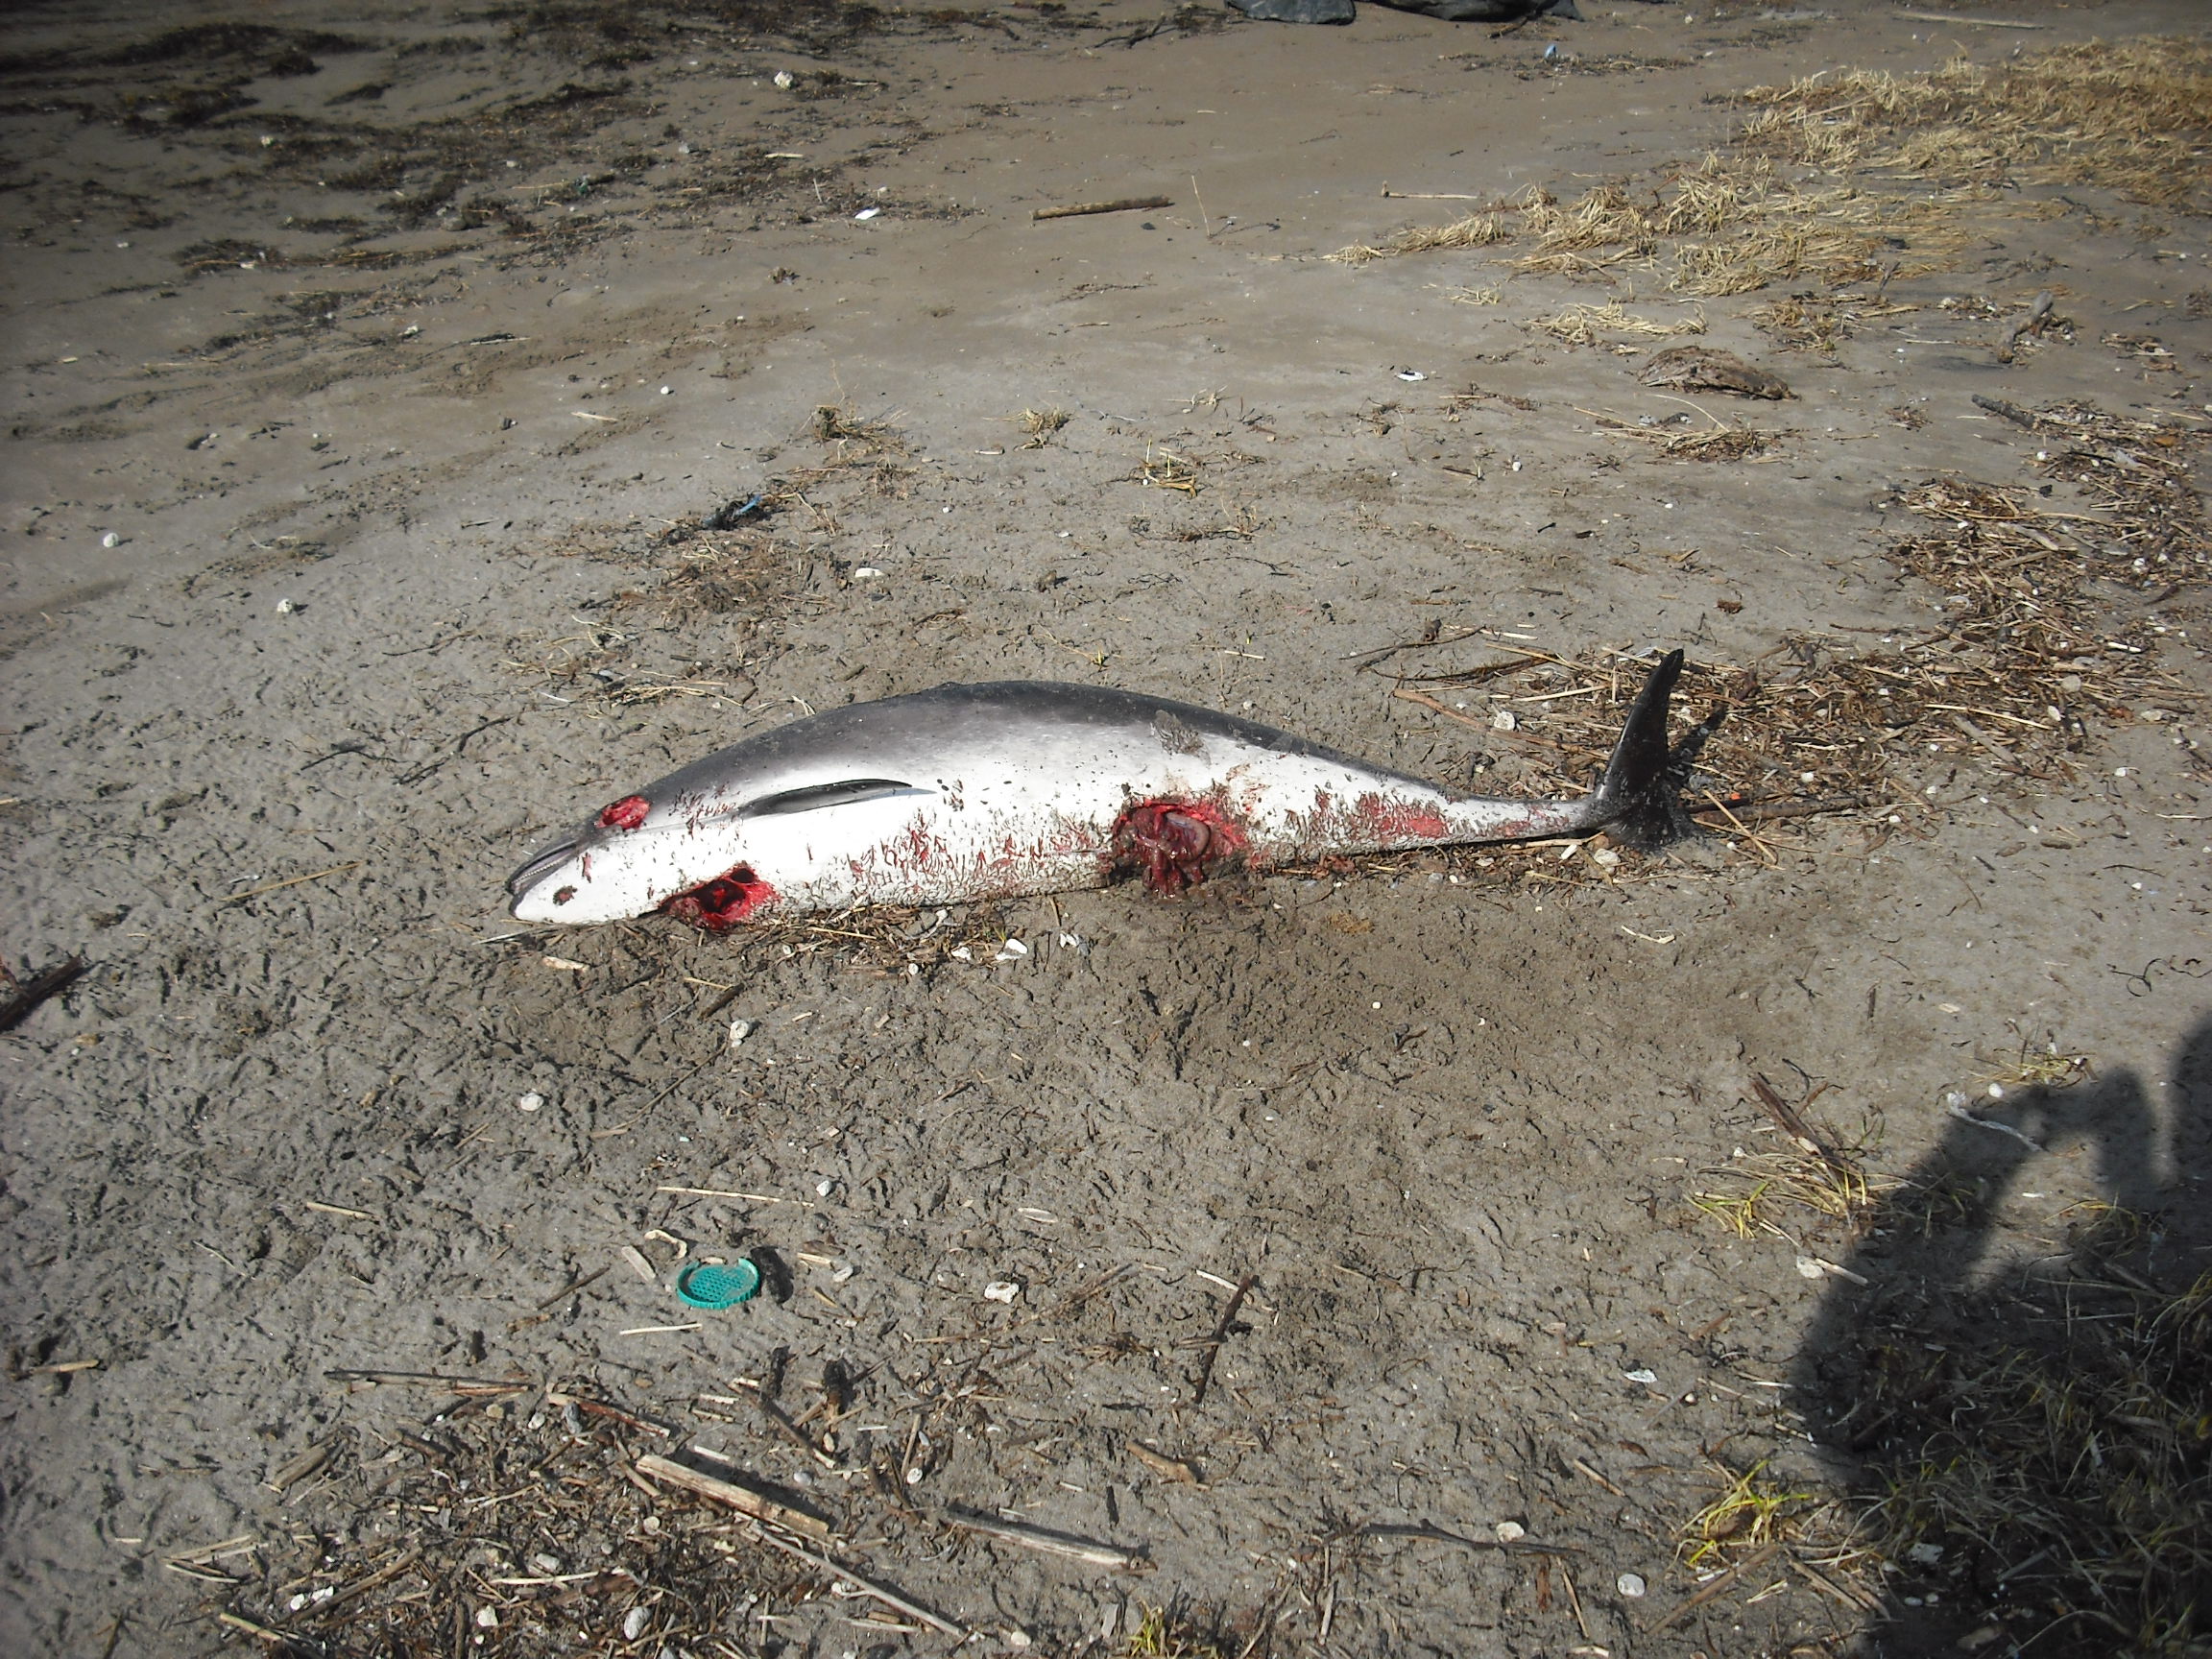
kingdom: Animalia
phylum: Chordata
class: Mammalia
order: Cetacea
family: Phocoenidae
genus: Phocoena
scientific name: Phocoena phocoena
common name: Harbour porpoise
